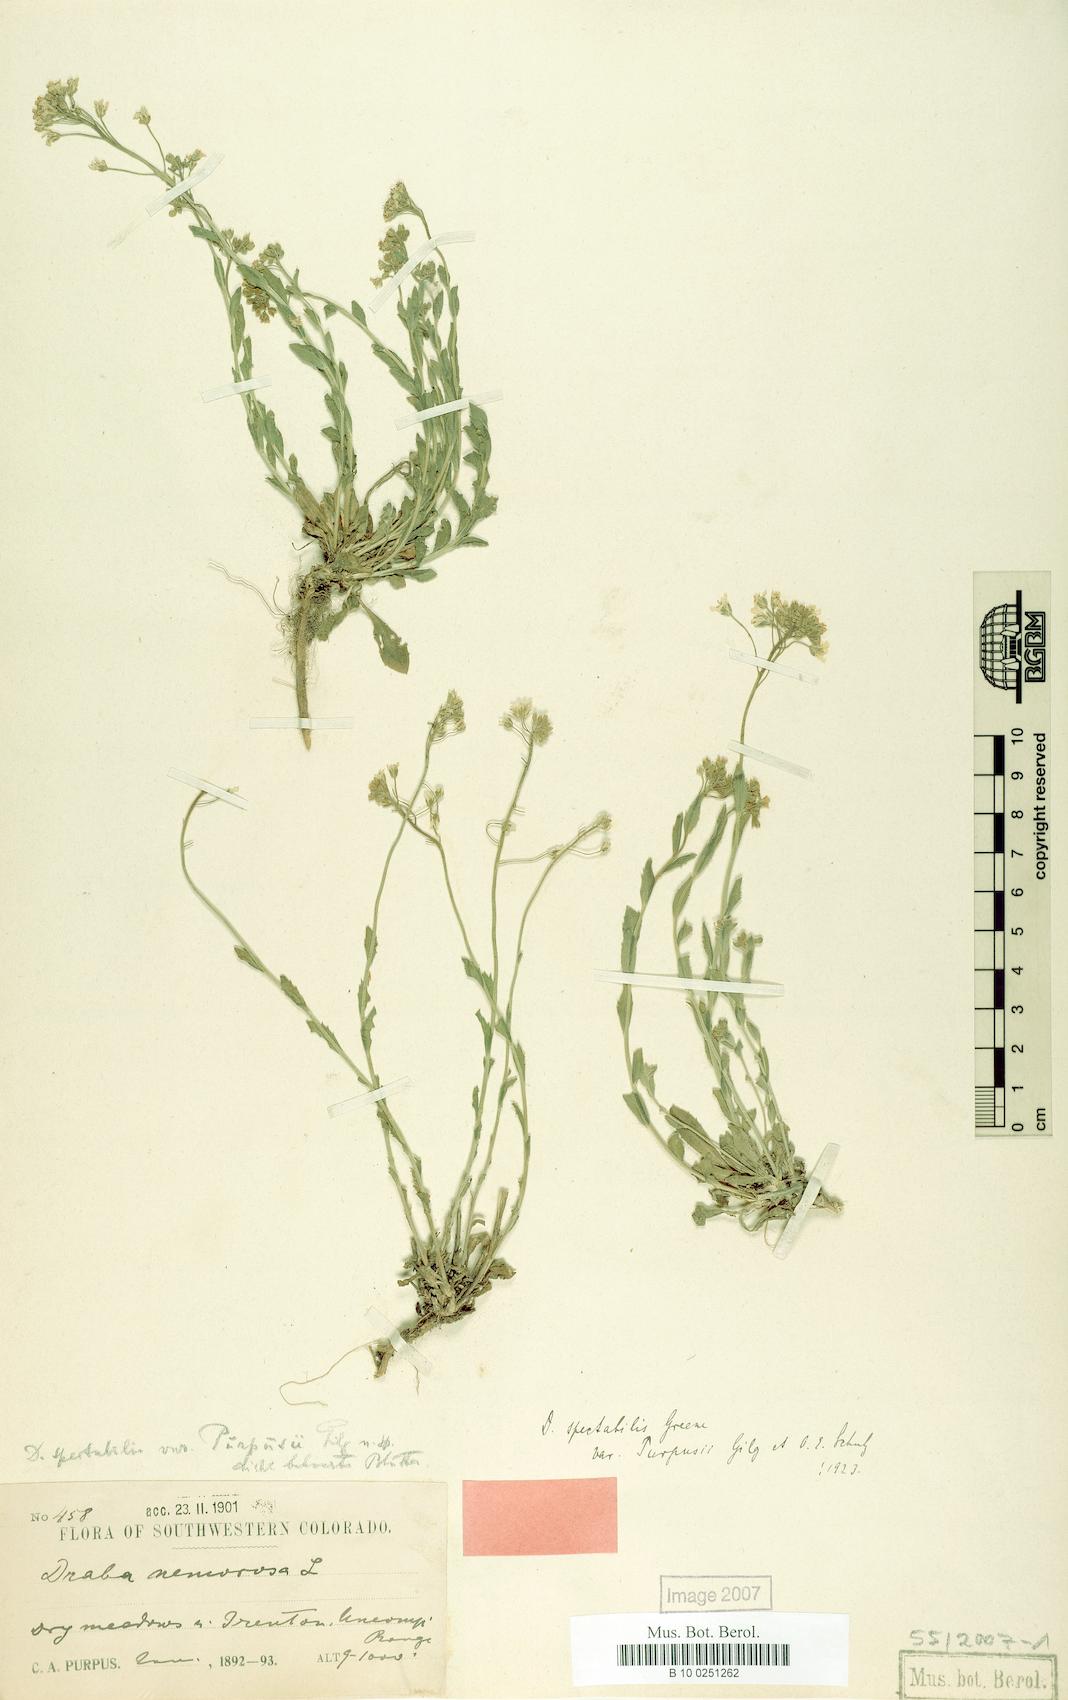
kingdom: Plantae
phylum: Tracheophyta
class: Magnoliopsida
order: Brassicales
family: Brassicaceae
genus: Draba
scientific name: Draba spectabilis
